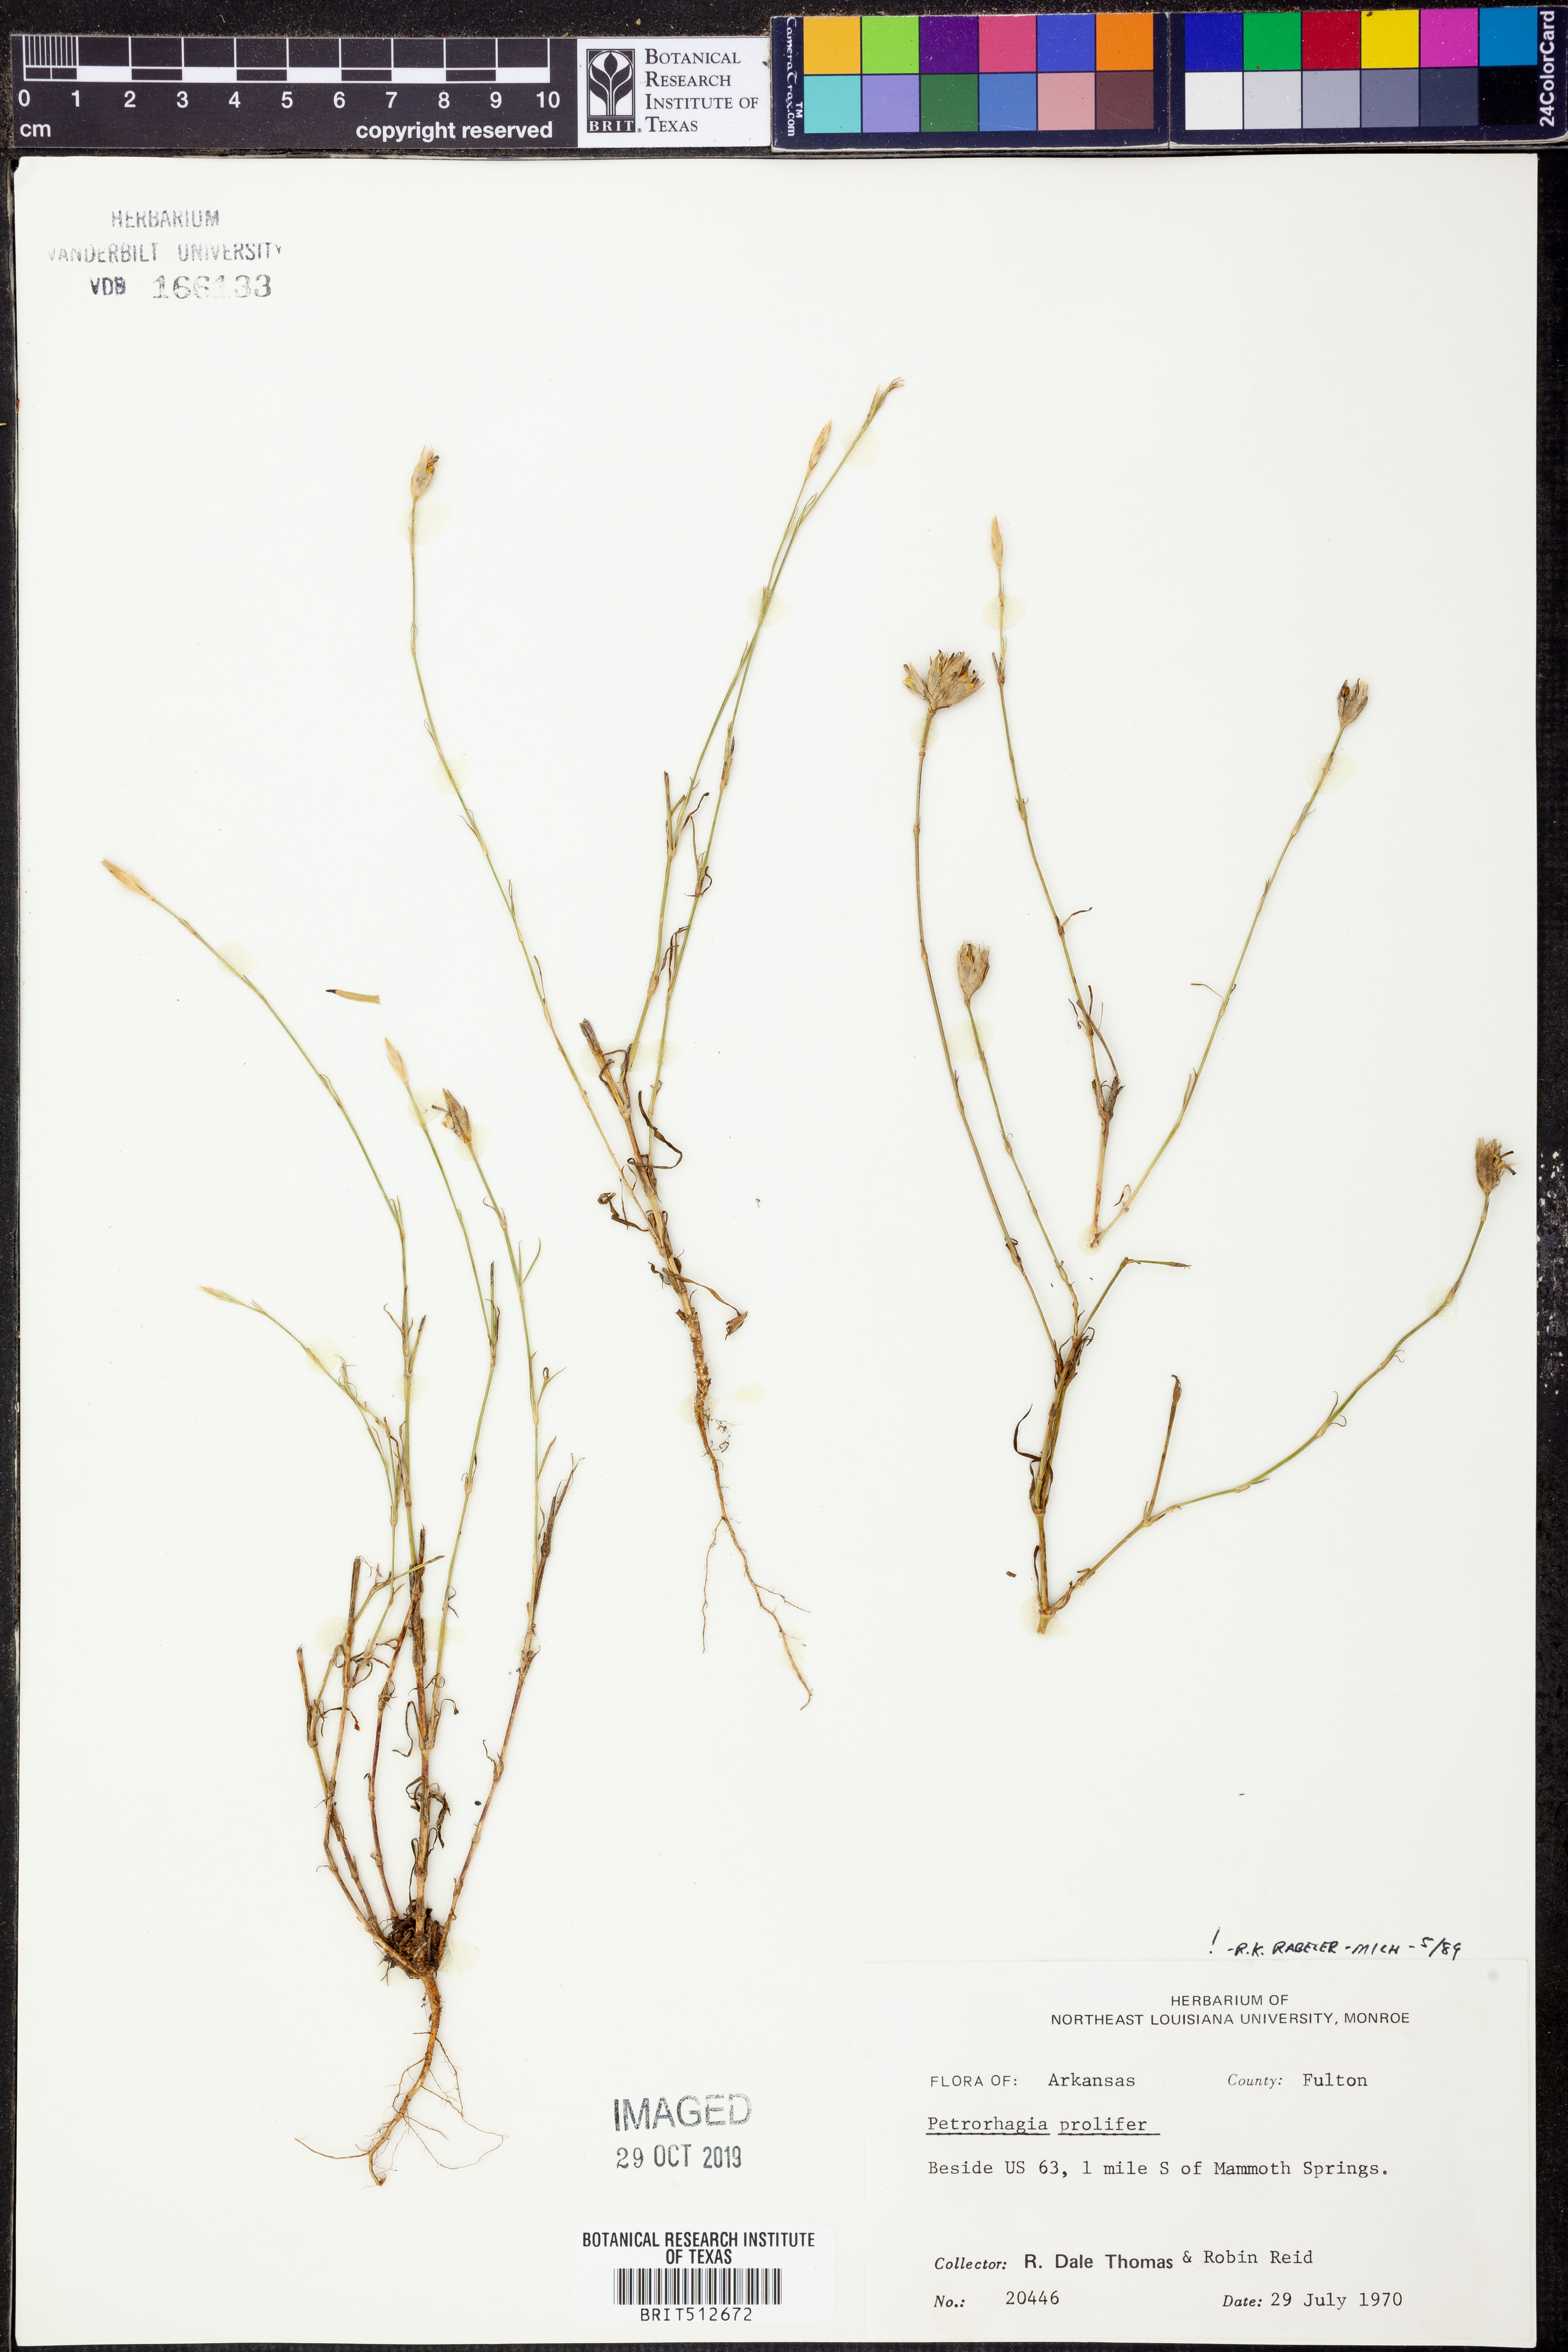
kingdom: Plantae
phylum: Tracheophyta
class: Magnoliopsida
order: Caryophyllales
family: Caryophyllaceae
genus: Petrorhagia
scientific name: Petrorhagia prolifera
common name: Proliferous pink
